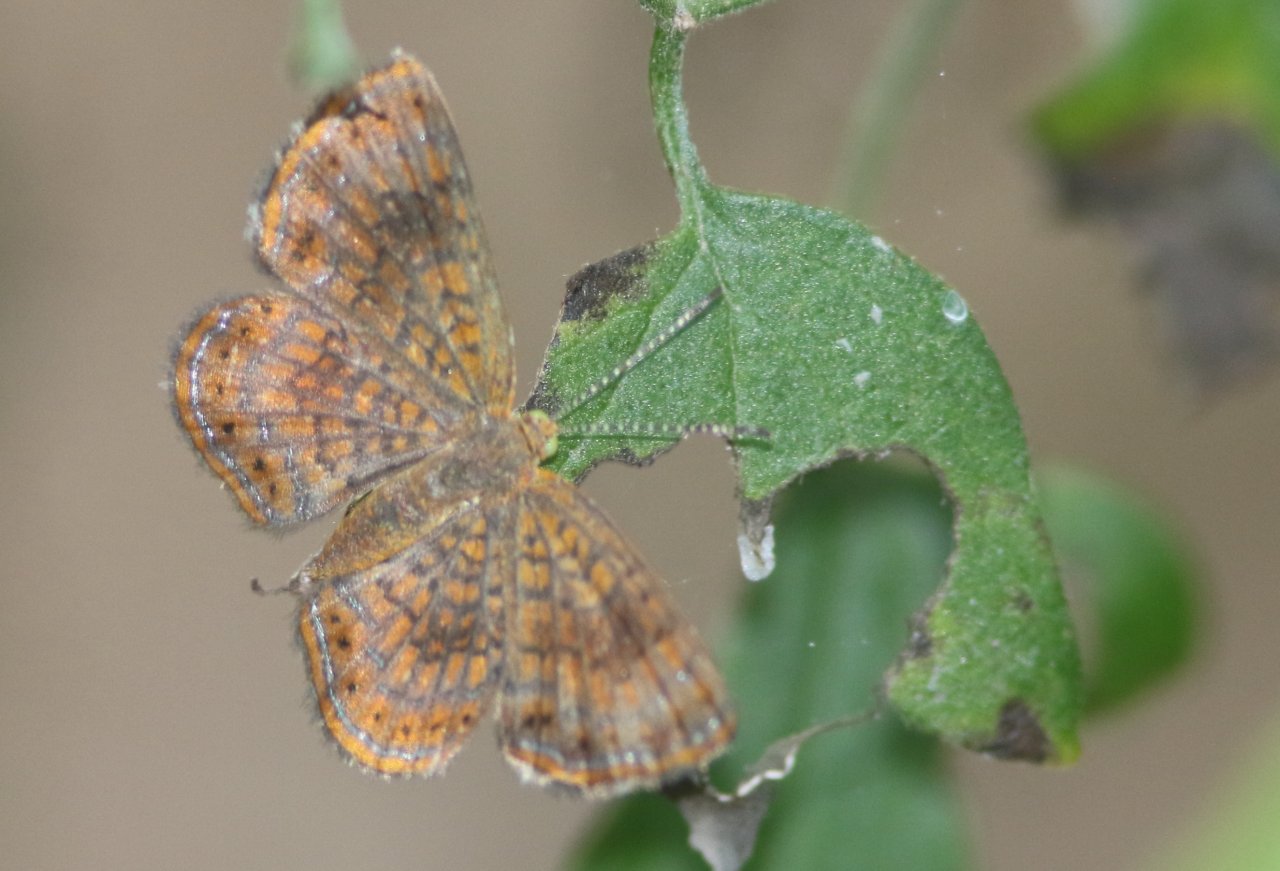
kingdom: Animalia
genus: Calephelis
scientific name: Calephelis perditalis
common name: Rounded Metalmark
